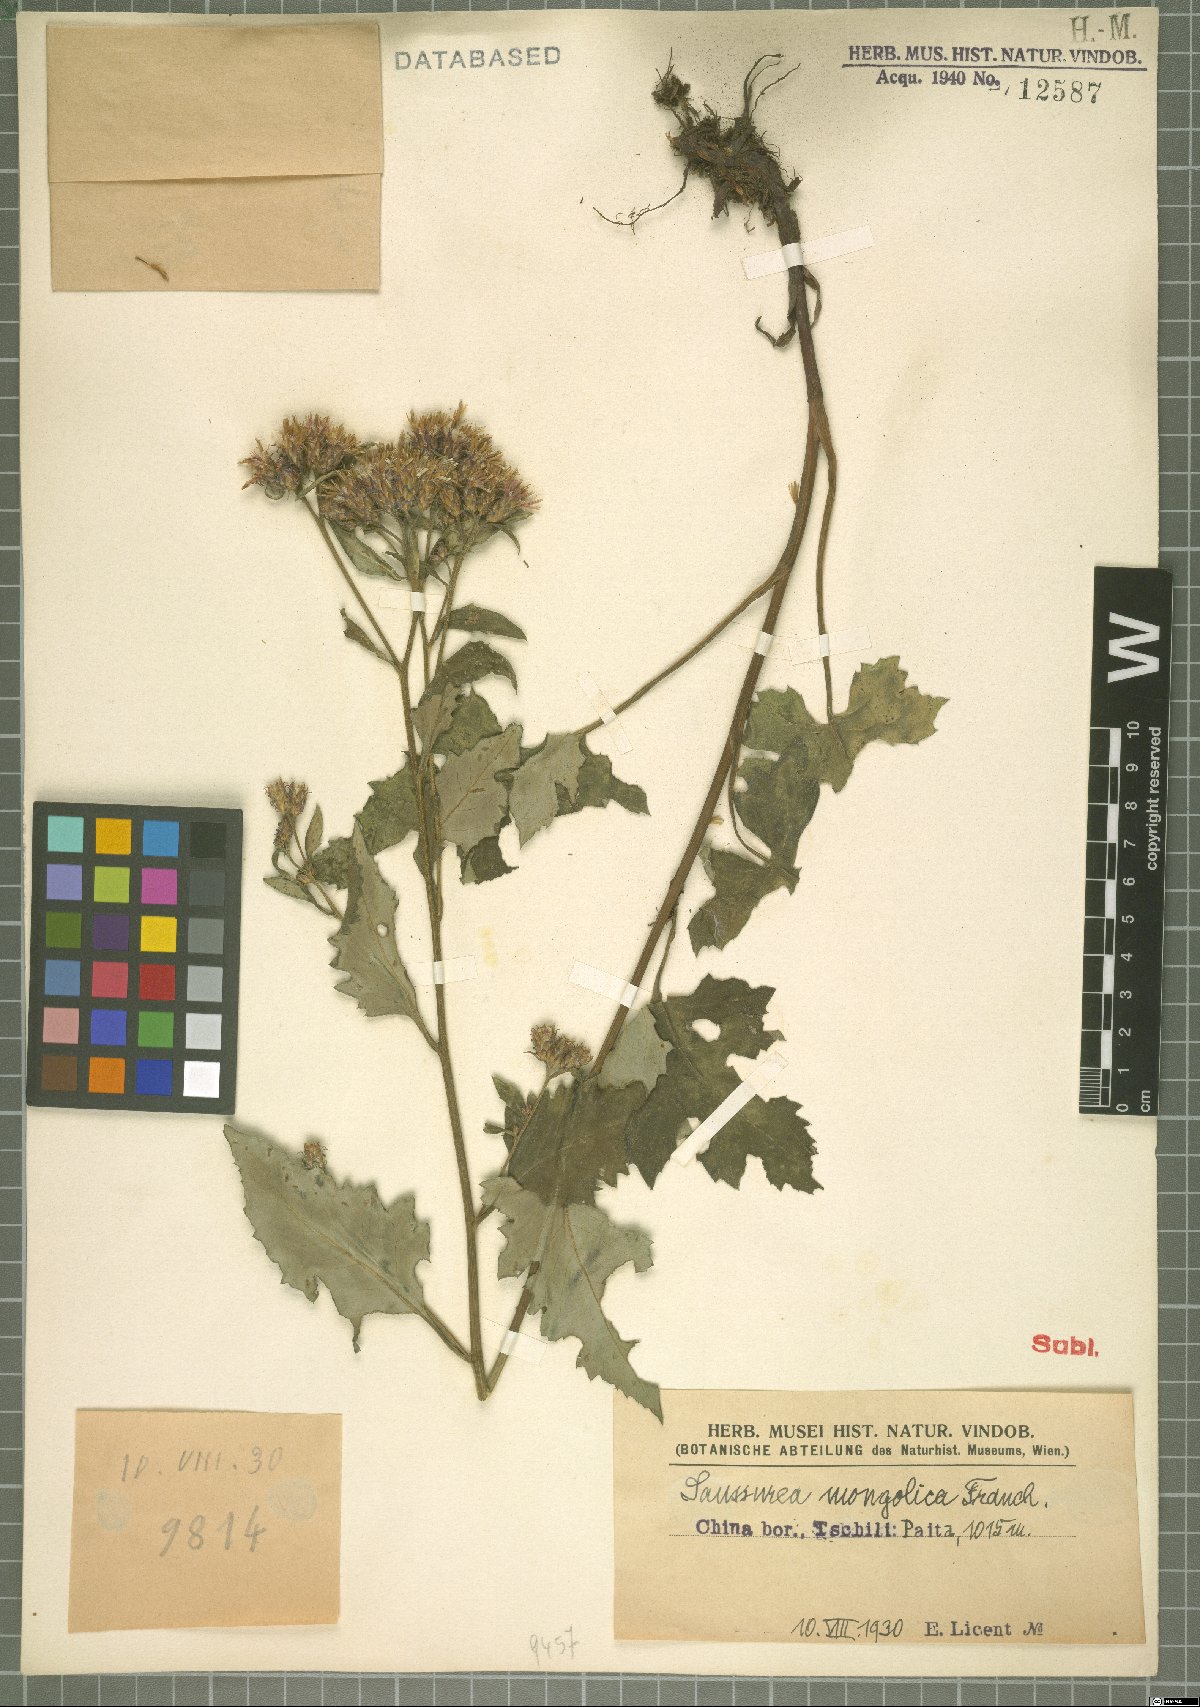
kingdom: Plantae
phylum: Tracheophyta
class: Magnoliopsida
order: Asterales
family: Asteraceae
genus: Saussurea
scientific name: Saussurea mongolica
